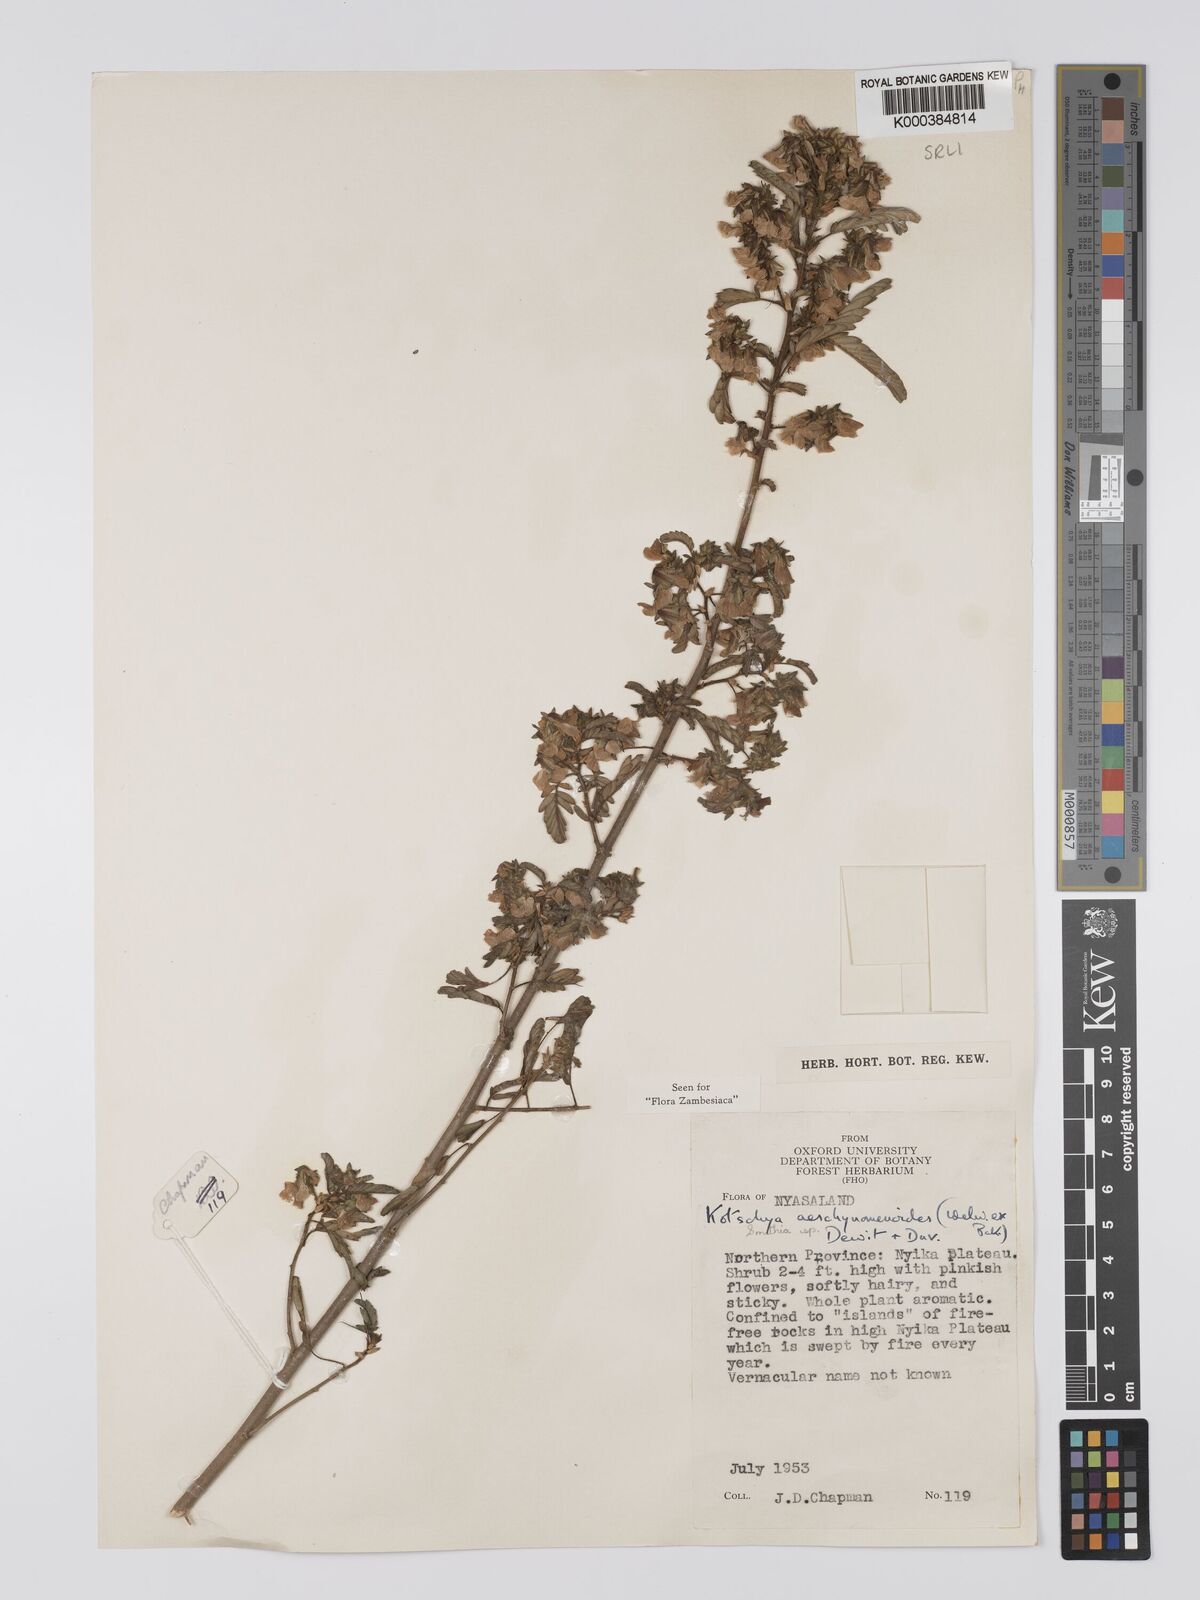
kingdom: Plantae
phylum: Tracheophyta
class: Magnoliopsida
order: Fabales
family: Fabaceae
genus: Kotschya
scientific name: Kotschya aeschynomenoides
